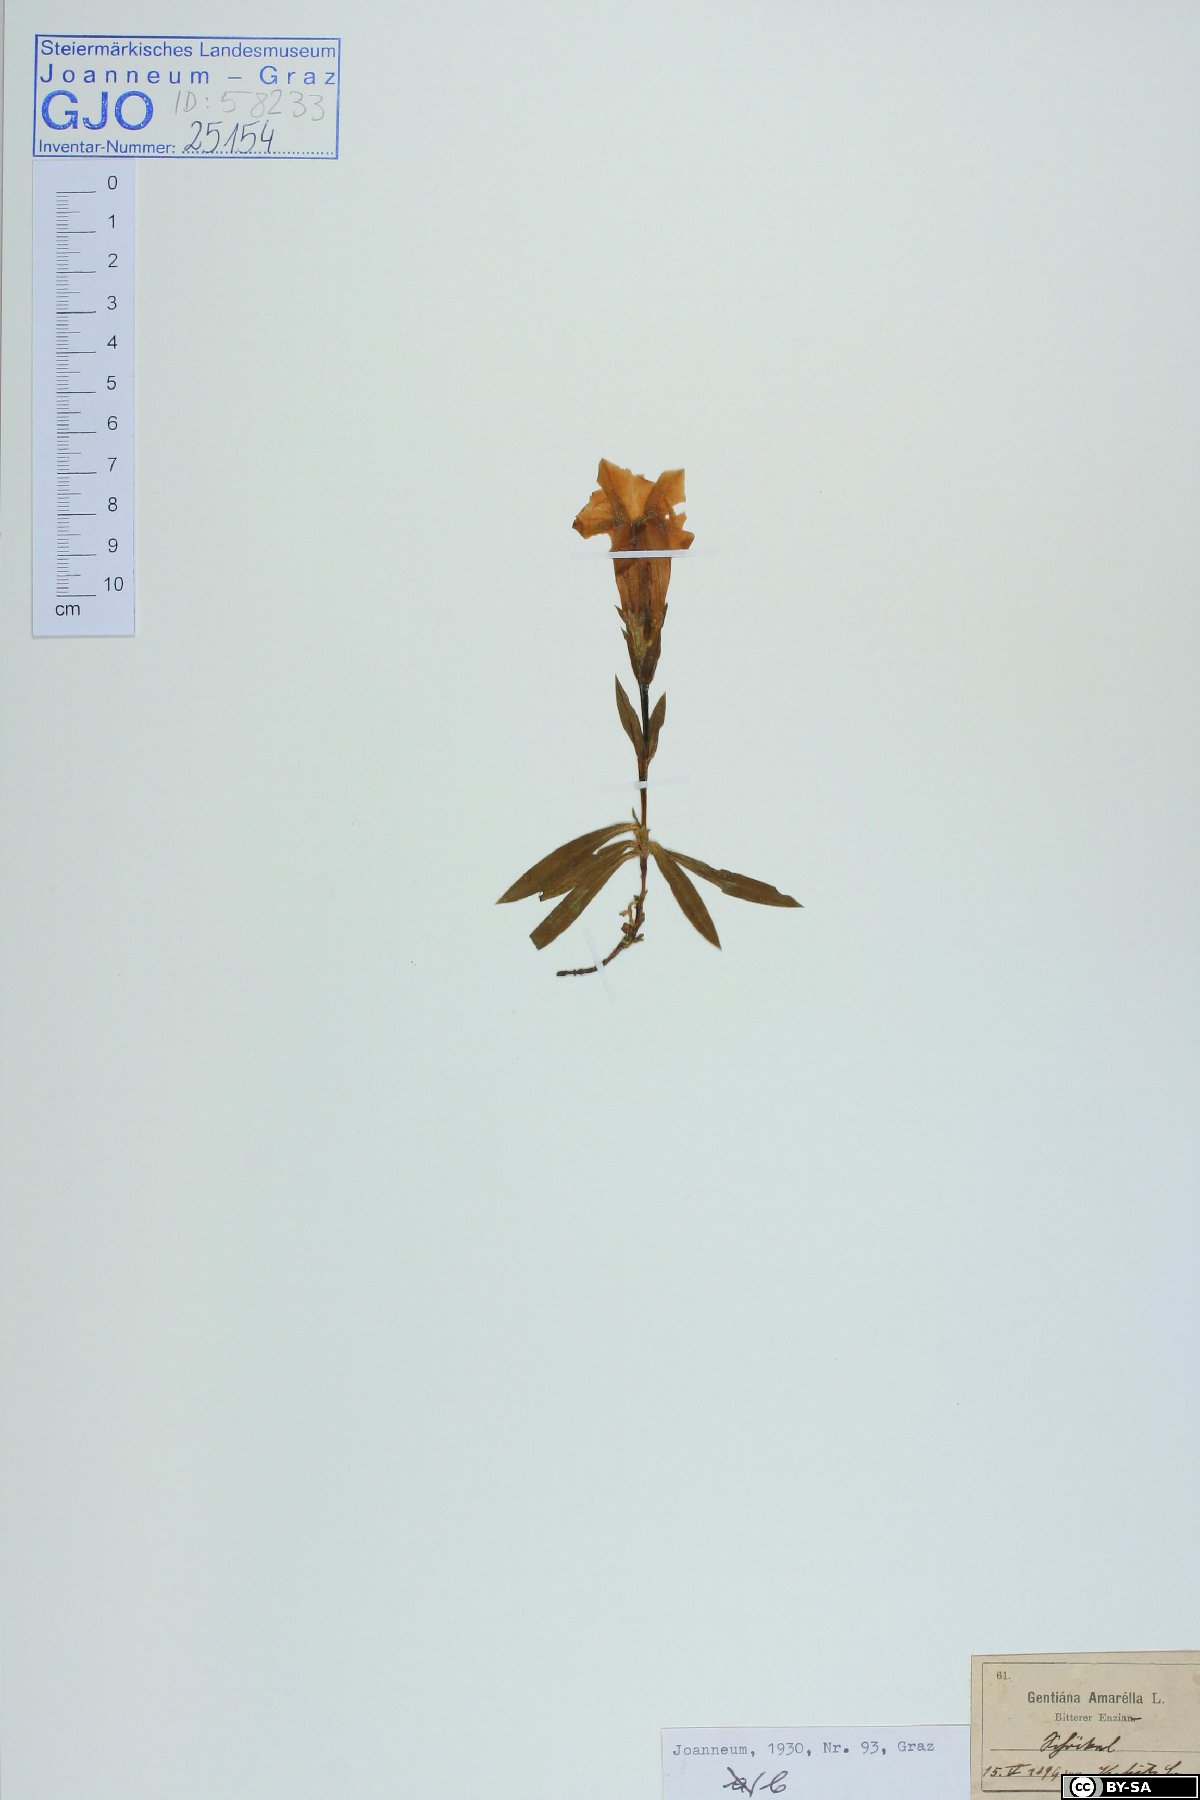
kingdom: Plantae
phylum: Tracheophyta
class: Magnoliopsida
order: Gentianales
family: Gentianaceae
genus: Gentiana
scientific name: Gentiana clusii
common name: Trumpet gentian
